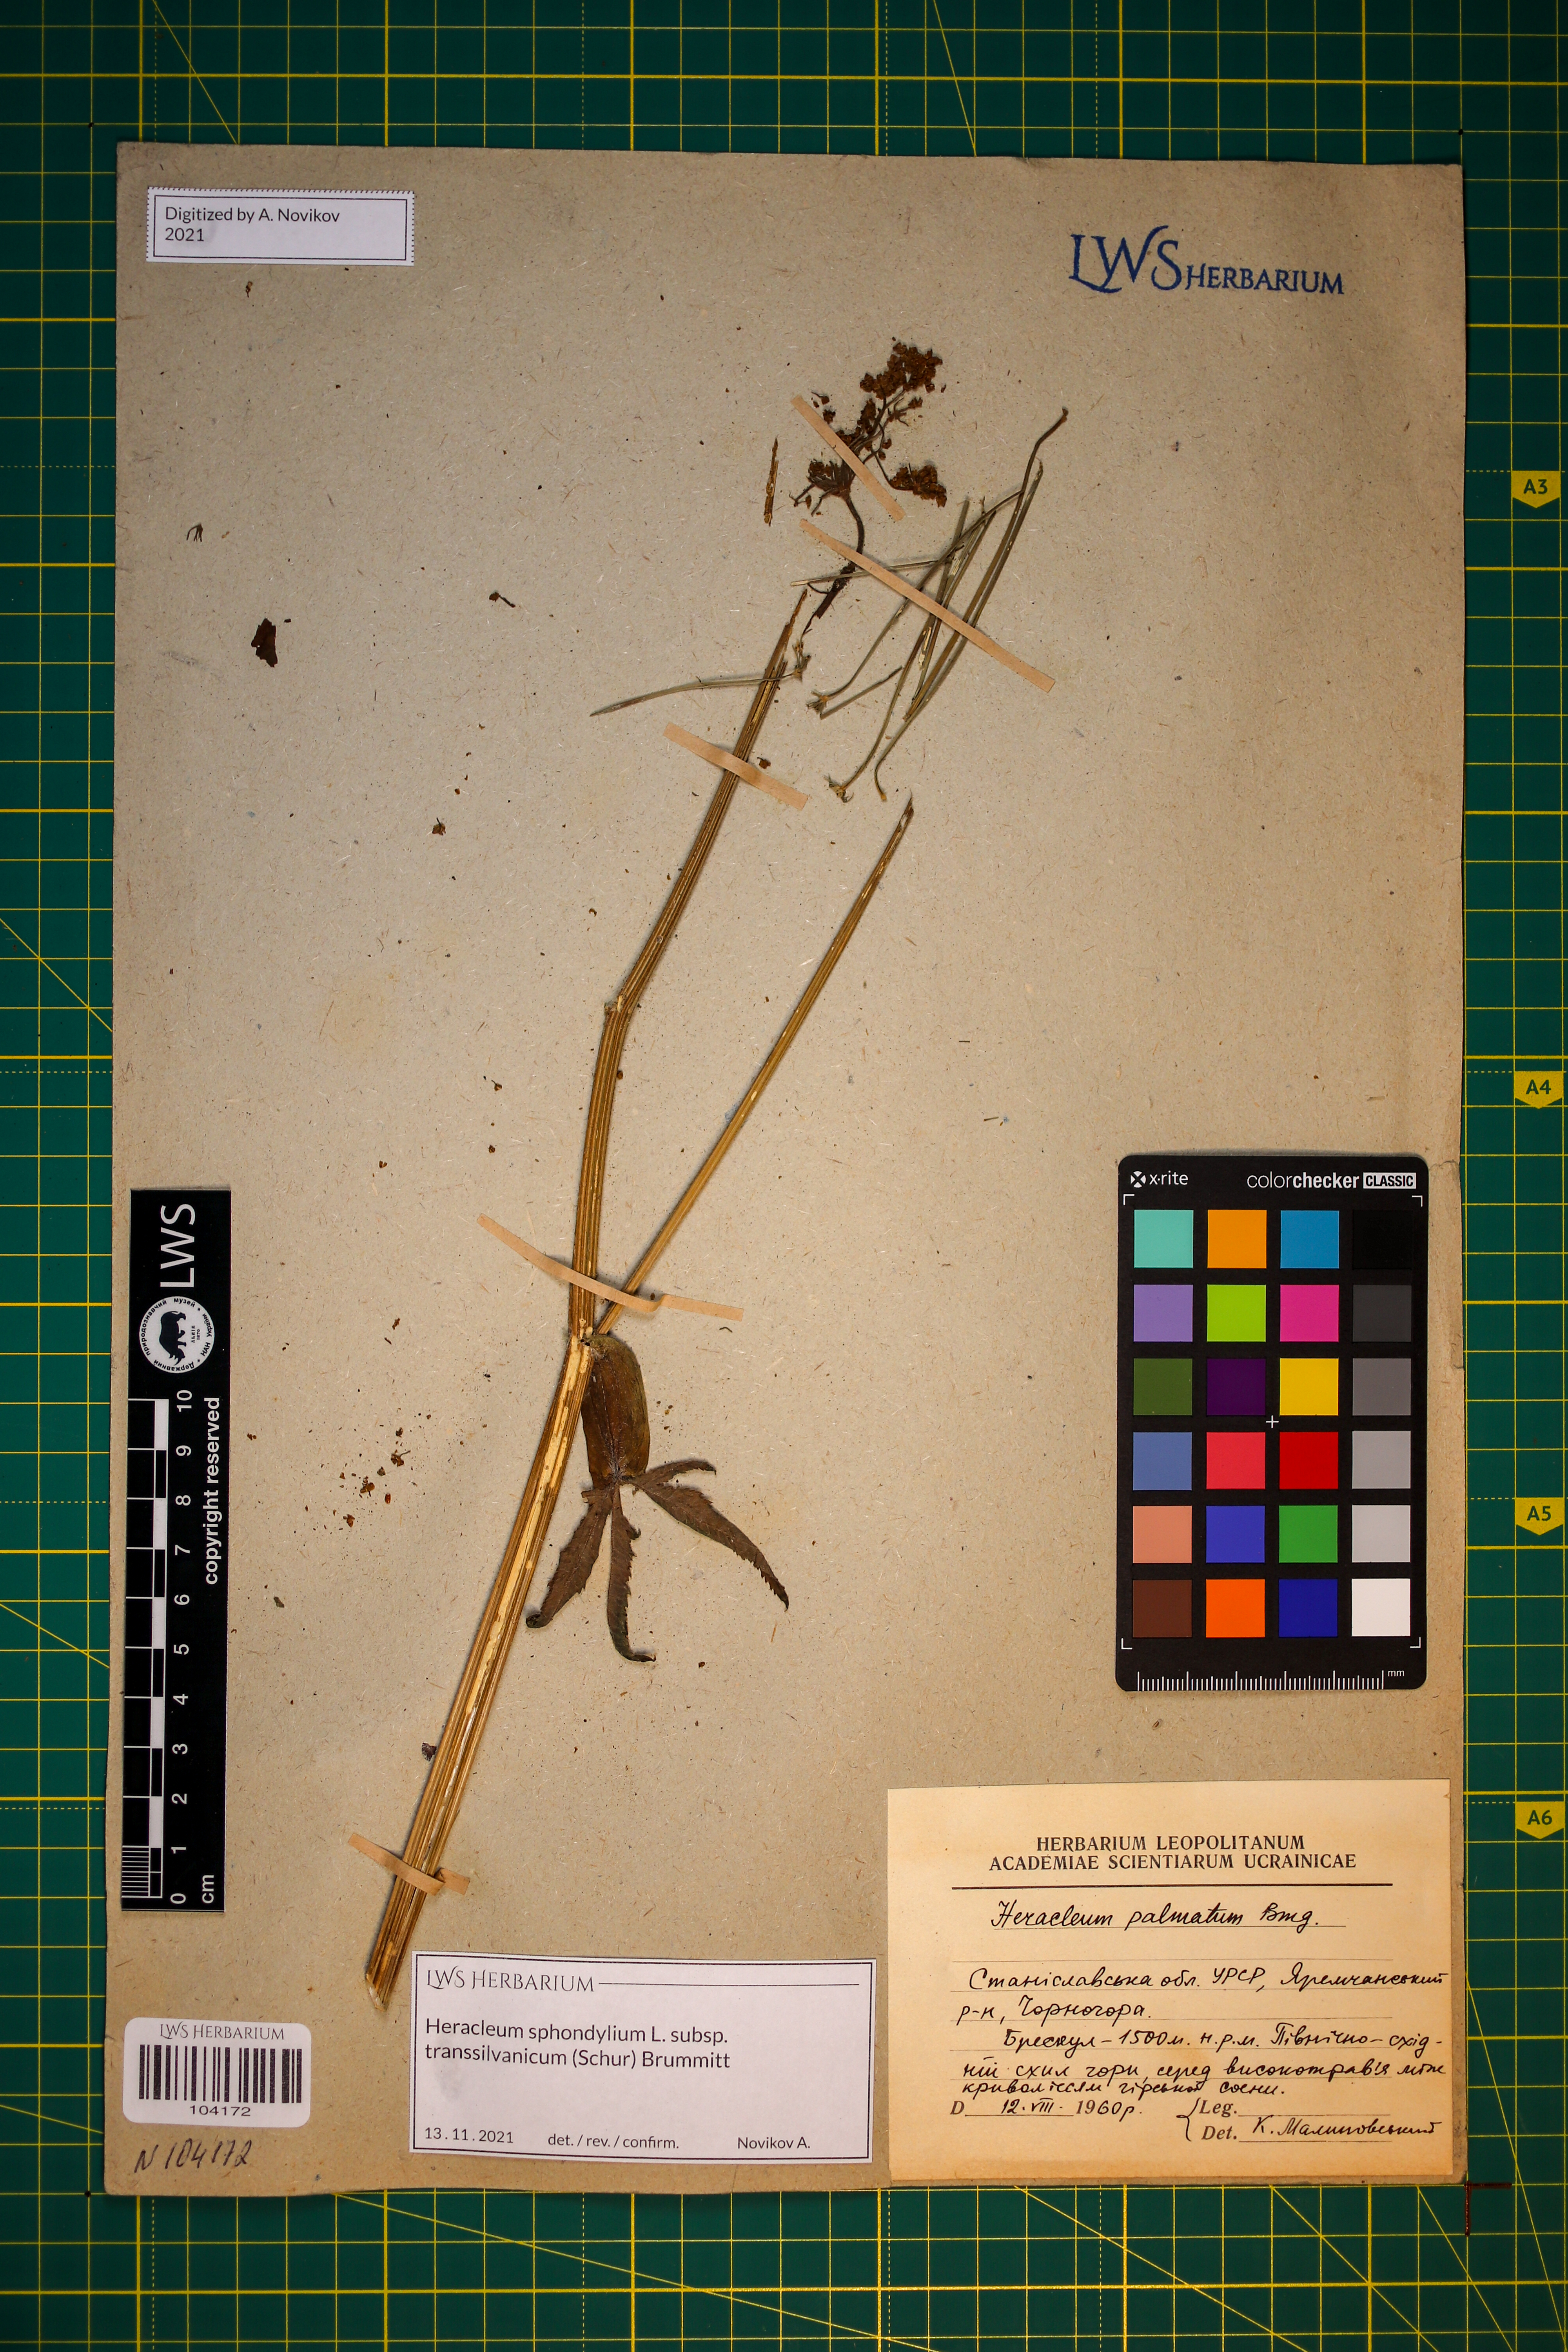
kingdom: Plantae
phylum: Tracheophyta
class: Magnoliopsida
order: Apiales
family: Apiaceae
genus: Heracleum
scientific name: Heracleum sphondylium
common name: Hogweed
